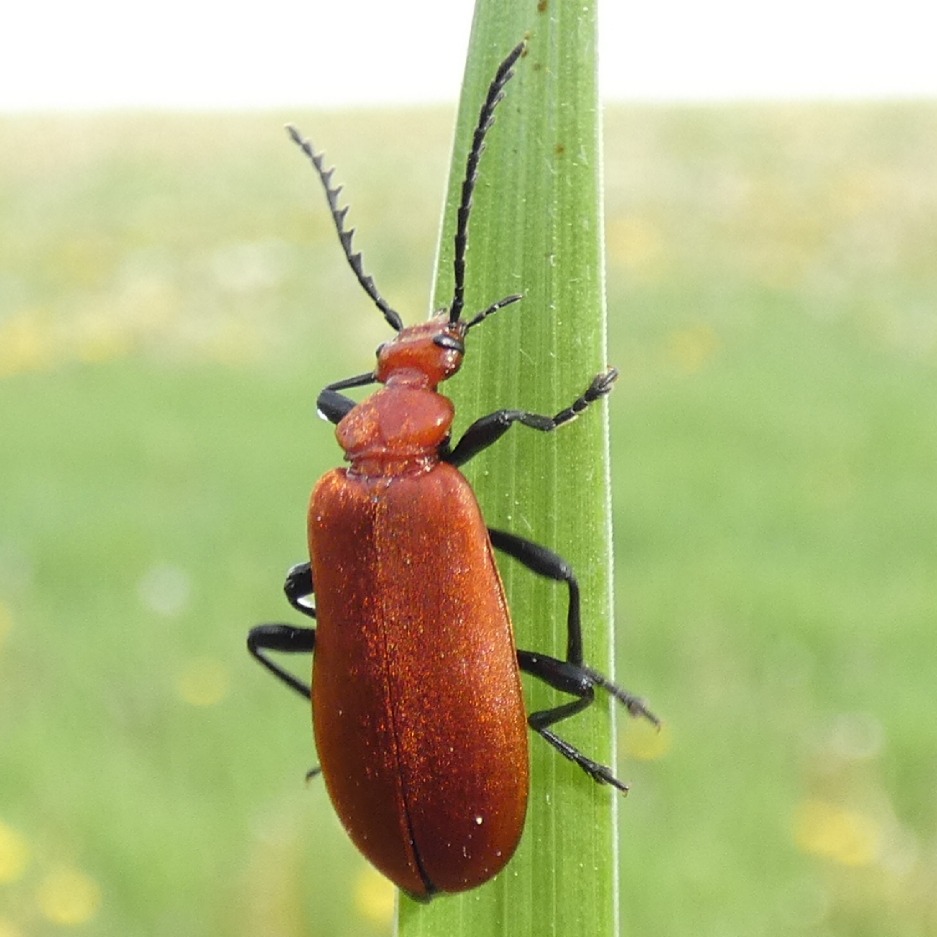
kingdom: Animalia
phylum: Arthropoda
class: Insecta
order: Coleoptera
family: Pyrochroidae
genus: Pyrochroa
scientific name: Pyrochroa serraticornis
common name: Rødhovedet kardinalbille
